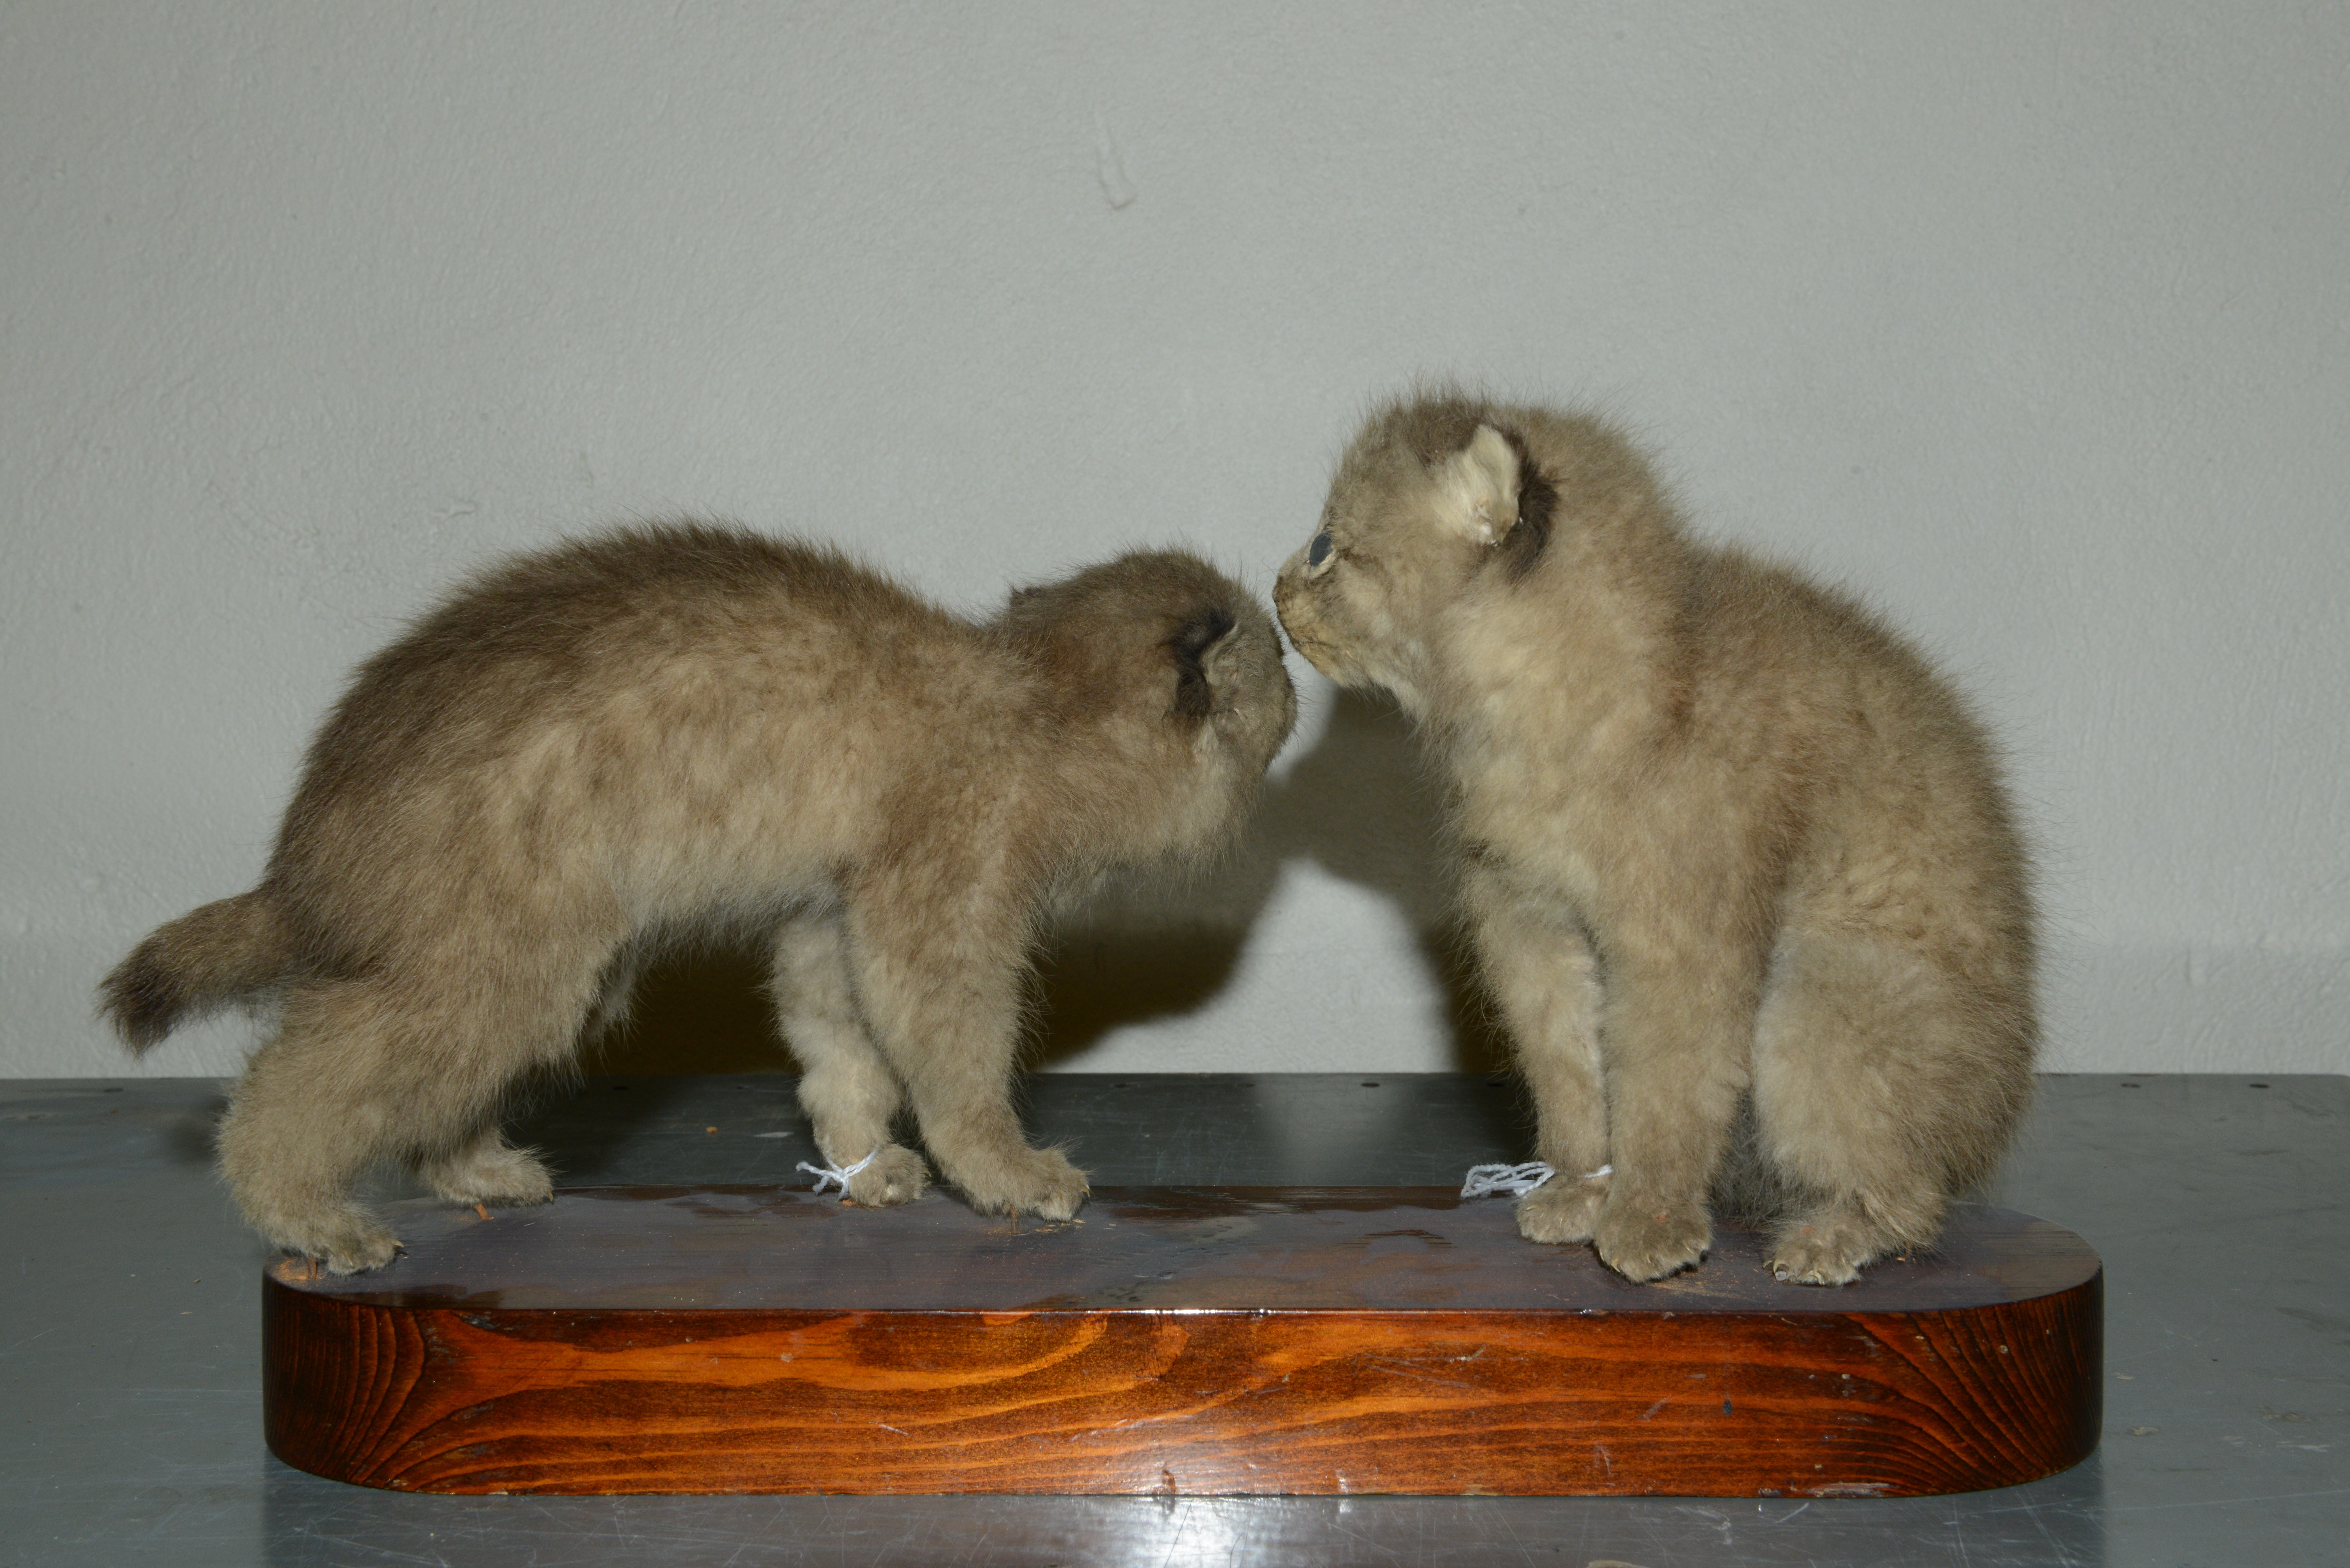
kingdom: Animalia
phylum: Chordata
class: Mammalia
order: Carnivora
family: Felidae
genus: Lynx
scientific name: Lynx lynx
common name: Eurasian lynx
